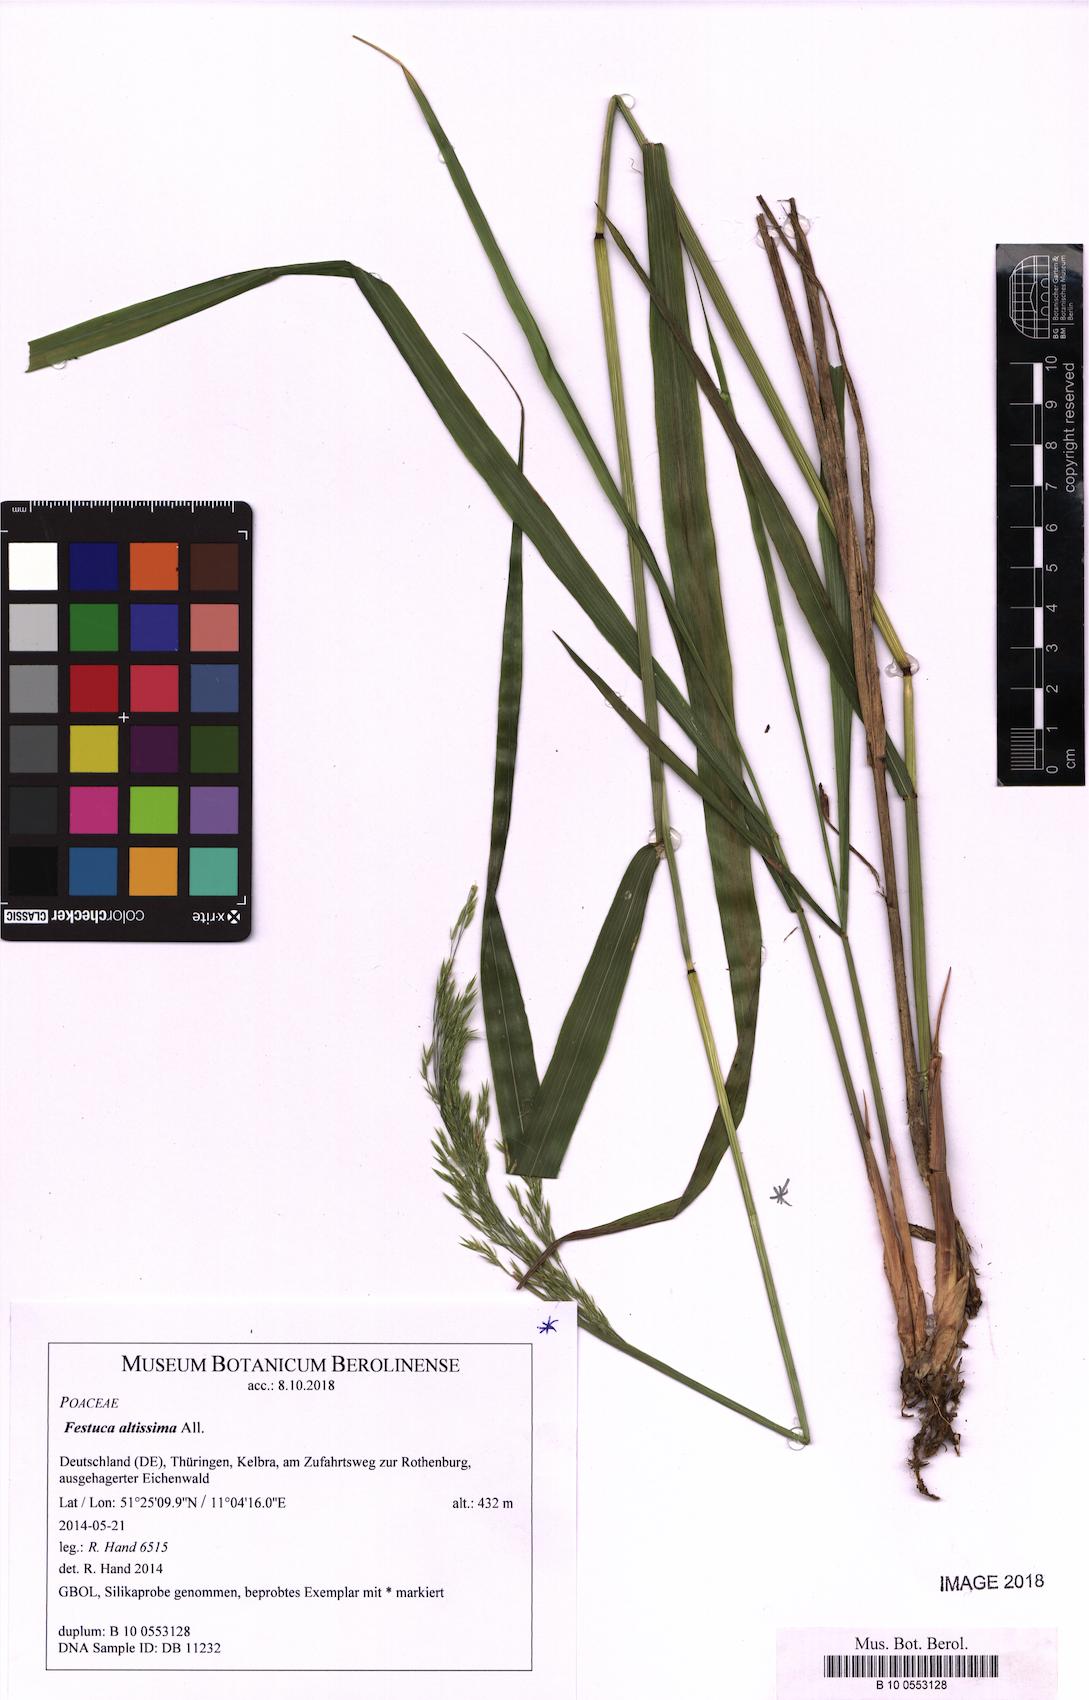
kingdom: Plantae
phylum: Tracheophyta
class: Liliopsida
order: Poales
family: Poaceae
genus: Festuca
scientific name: Festuca altissima
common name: Wood fescue
